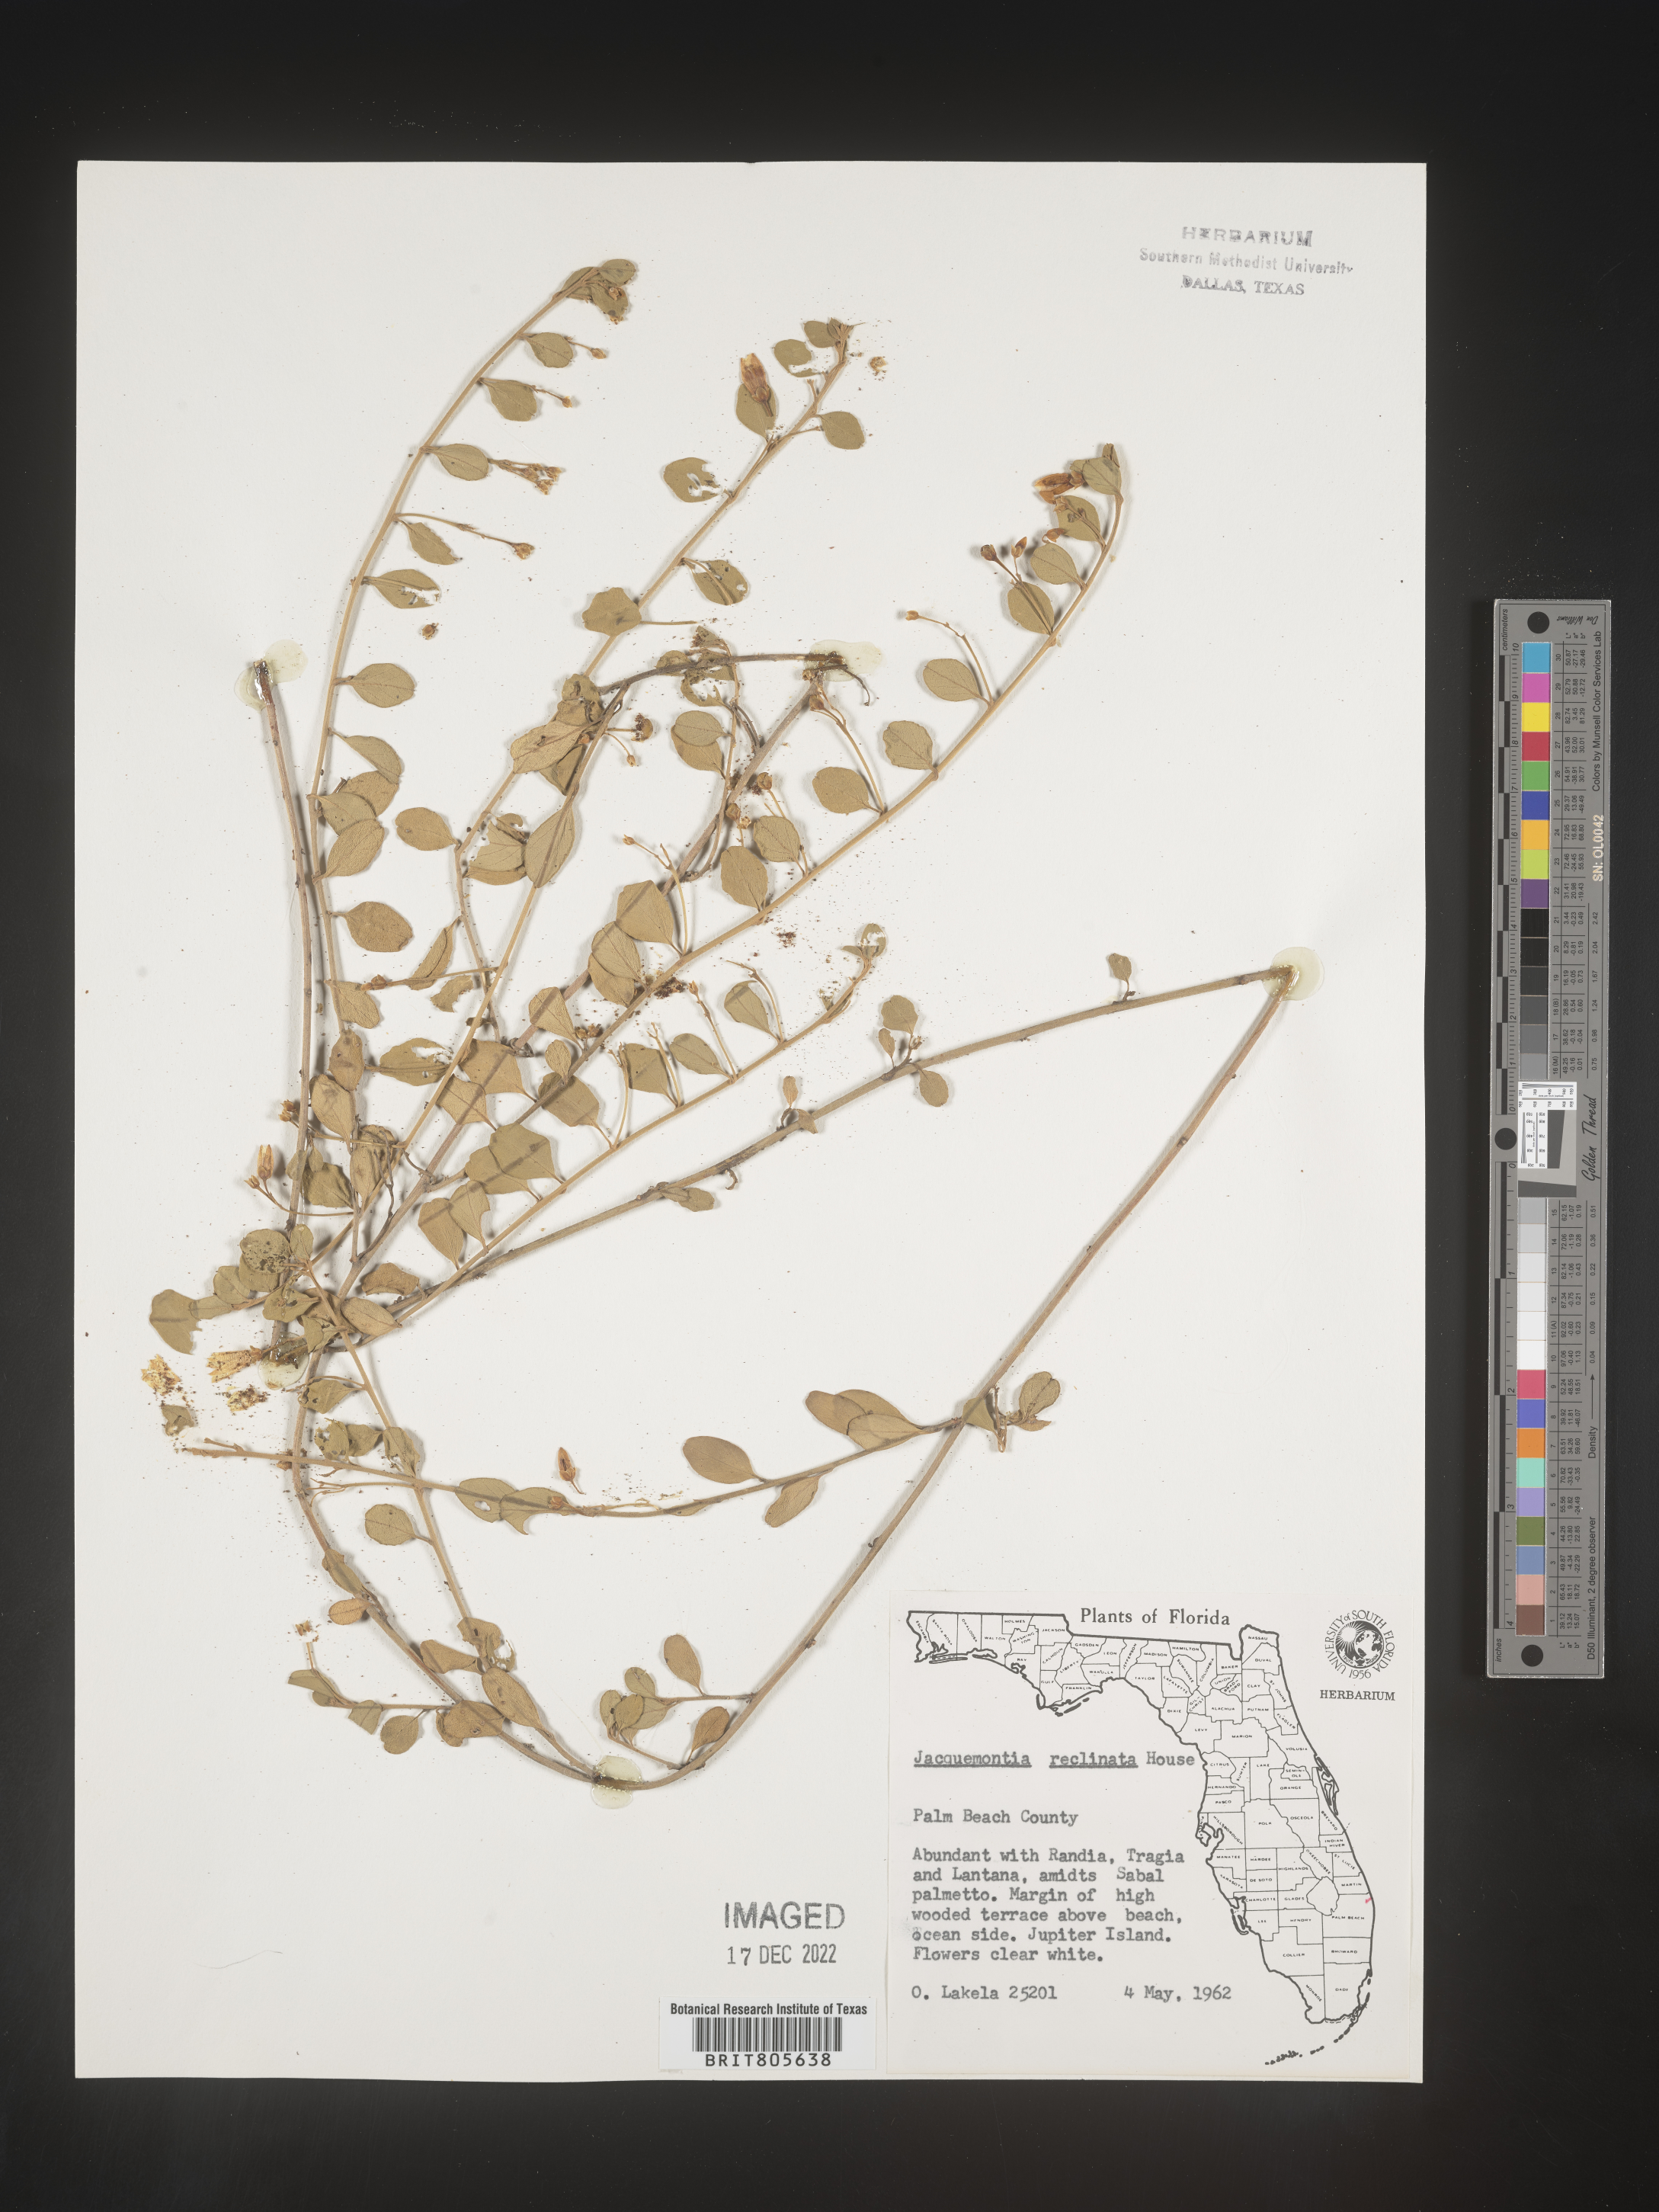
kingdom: Plantae
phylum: Tracheophyta
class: Magnoliopsida
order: Solanales
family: Convolvulaceae
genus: Jacquemontia
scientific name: Jacquemontia
